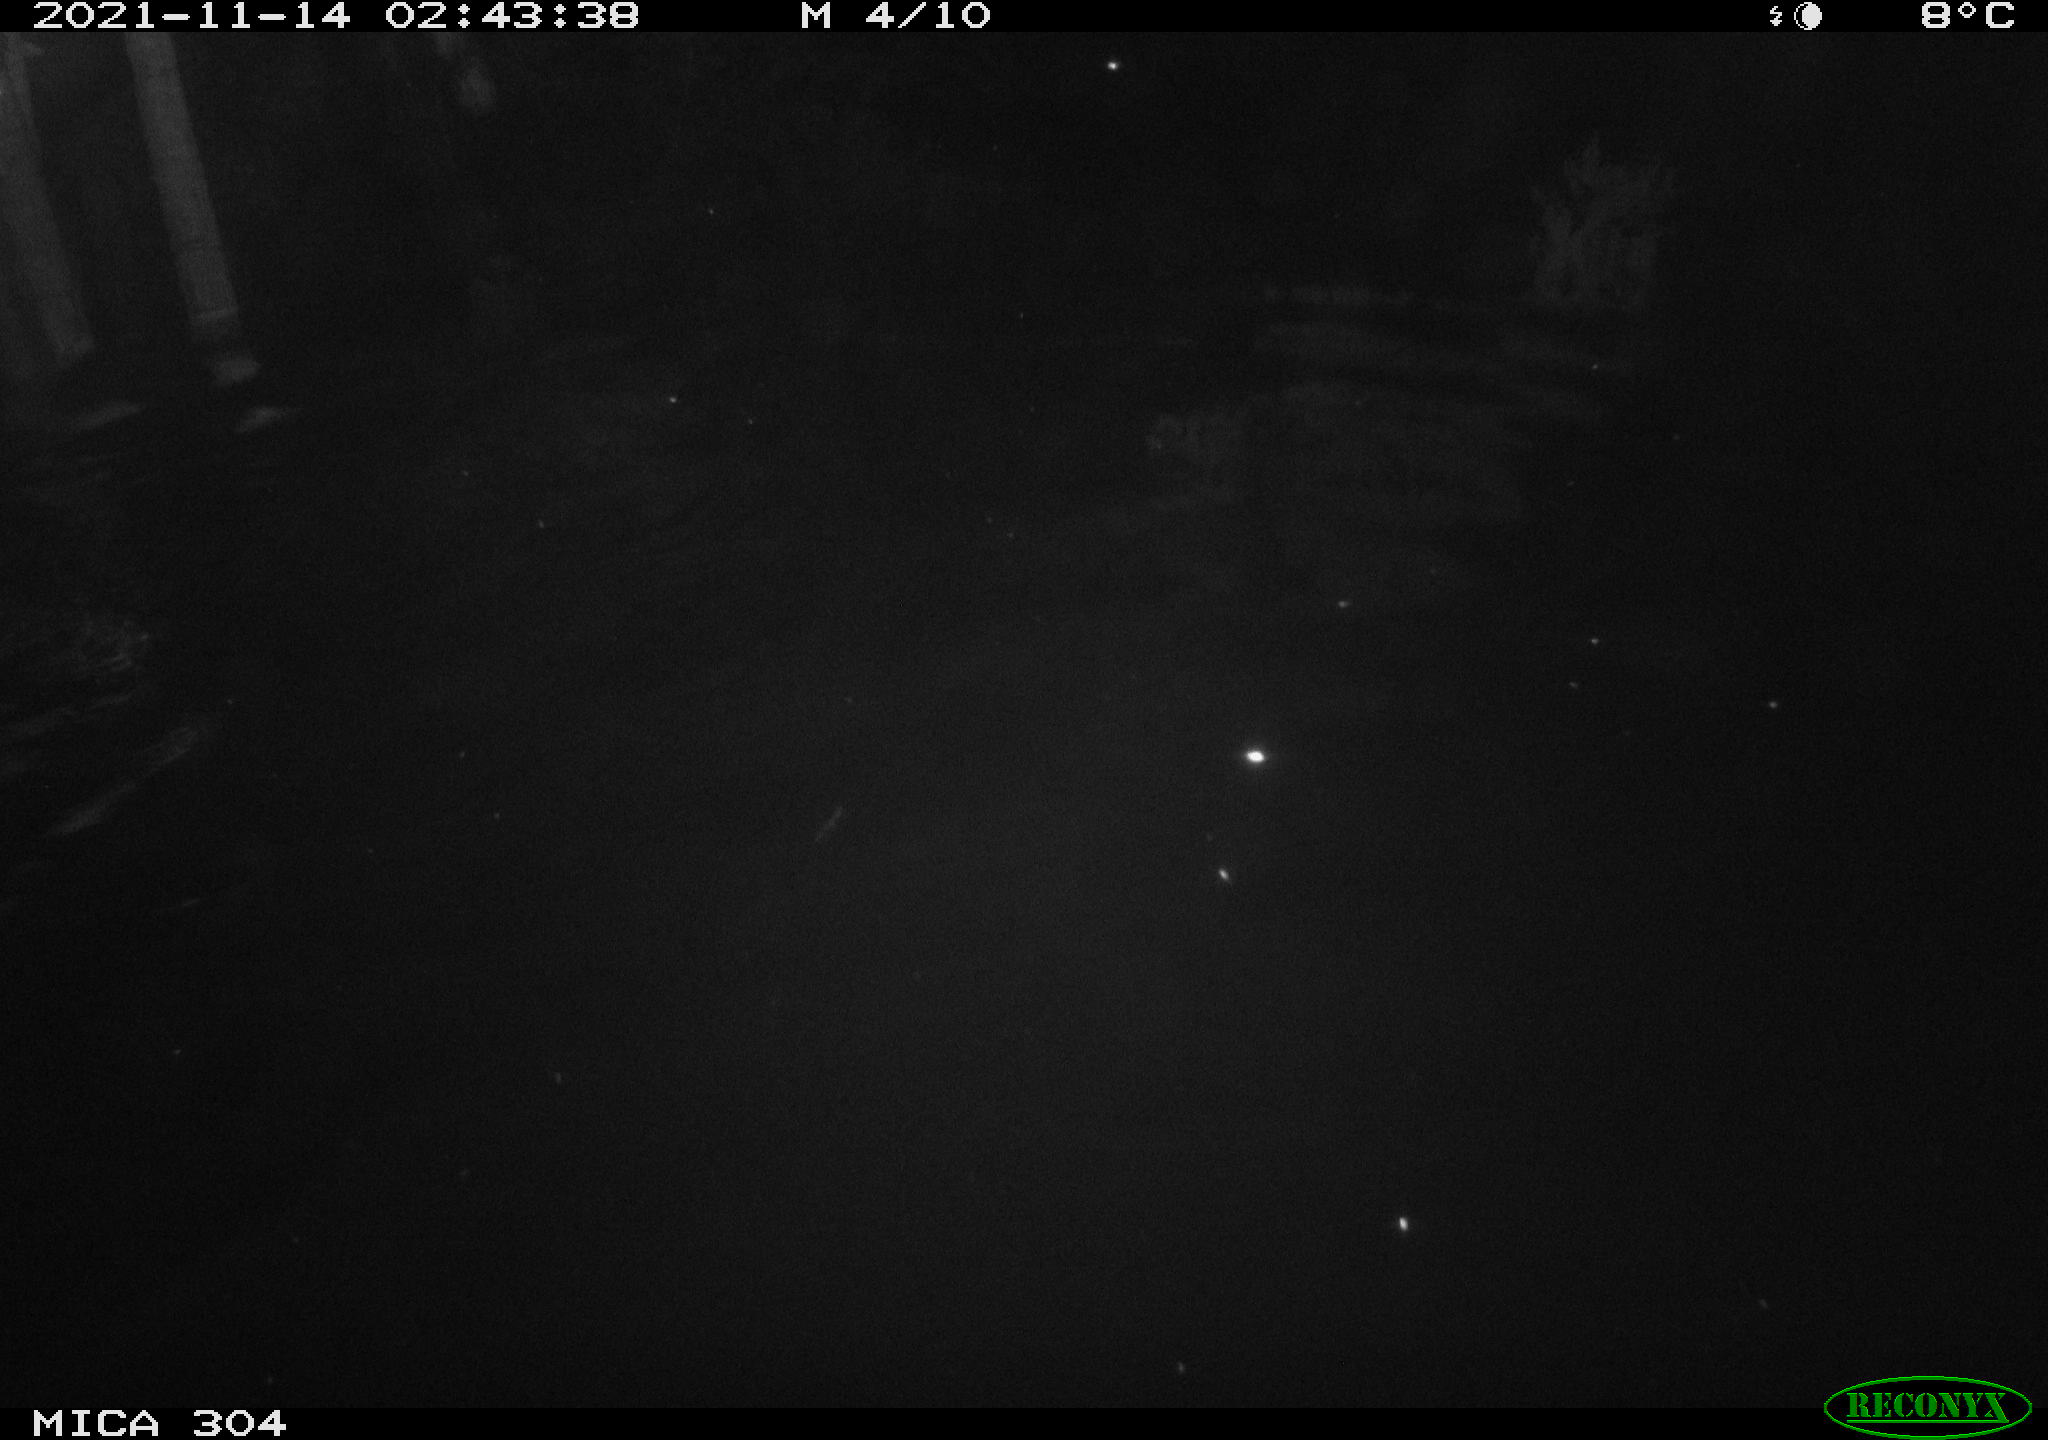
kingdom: Animalia
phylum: Chordata
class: Mammalia
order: Rodentia
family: Muridae
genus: Rattus
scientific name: Rattus norvegicus
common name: Brown rat
